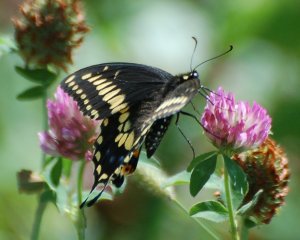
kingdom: Animalia
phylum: Arthropoda
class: Insecta
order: Lepidoptera
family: Papilionidae
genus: Papilio
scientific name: Papilio polyxenes
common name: Black Swallowtail
